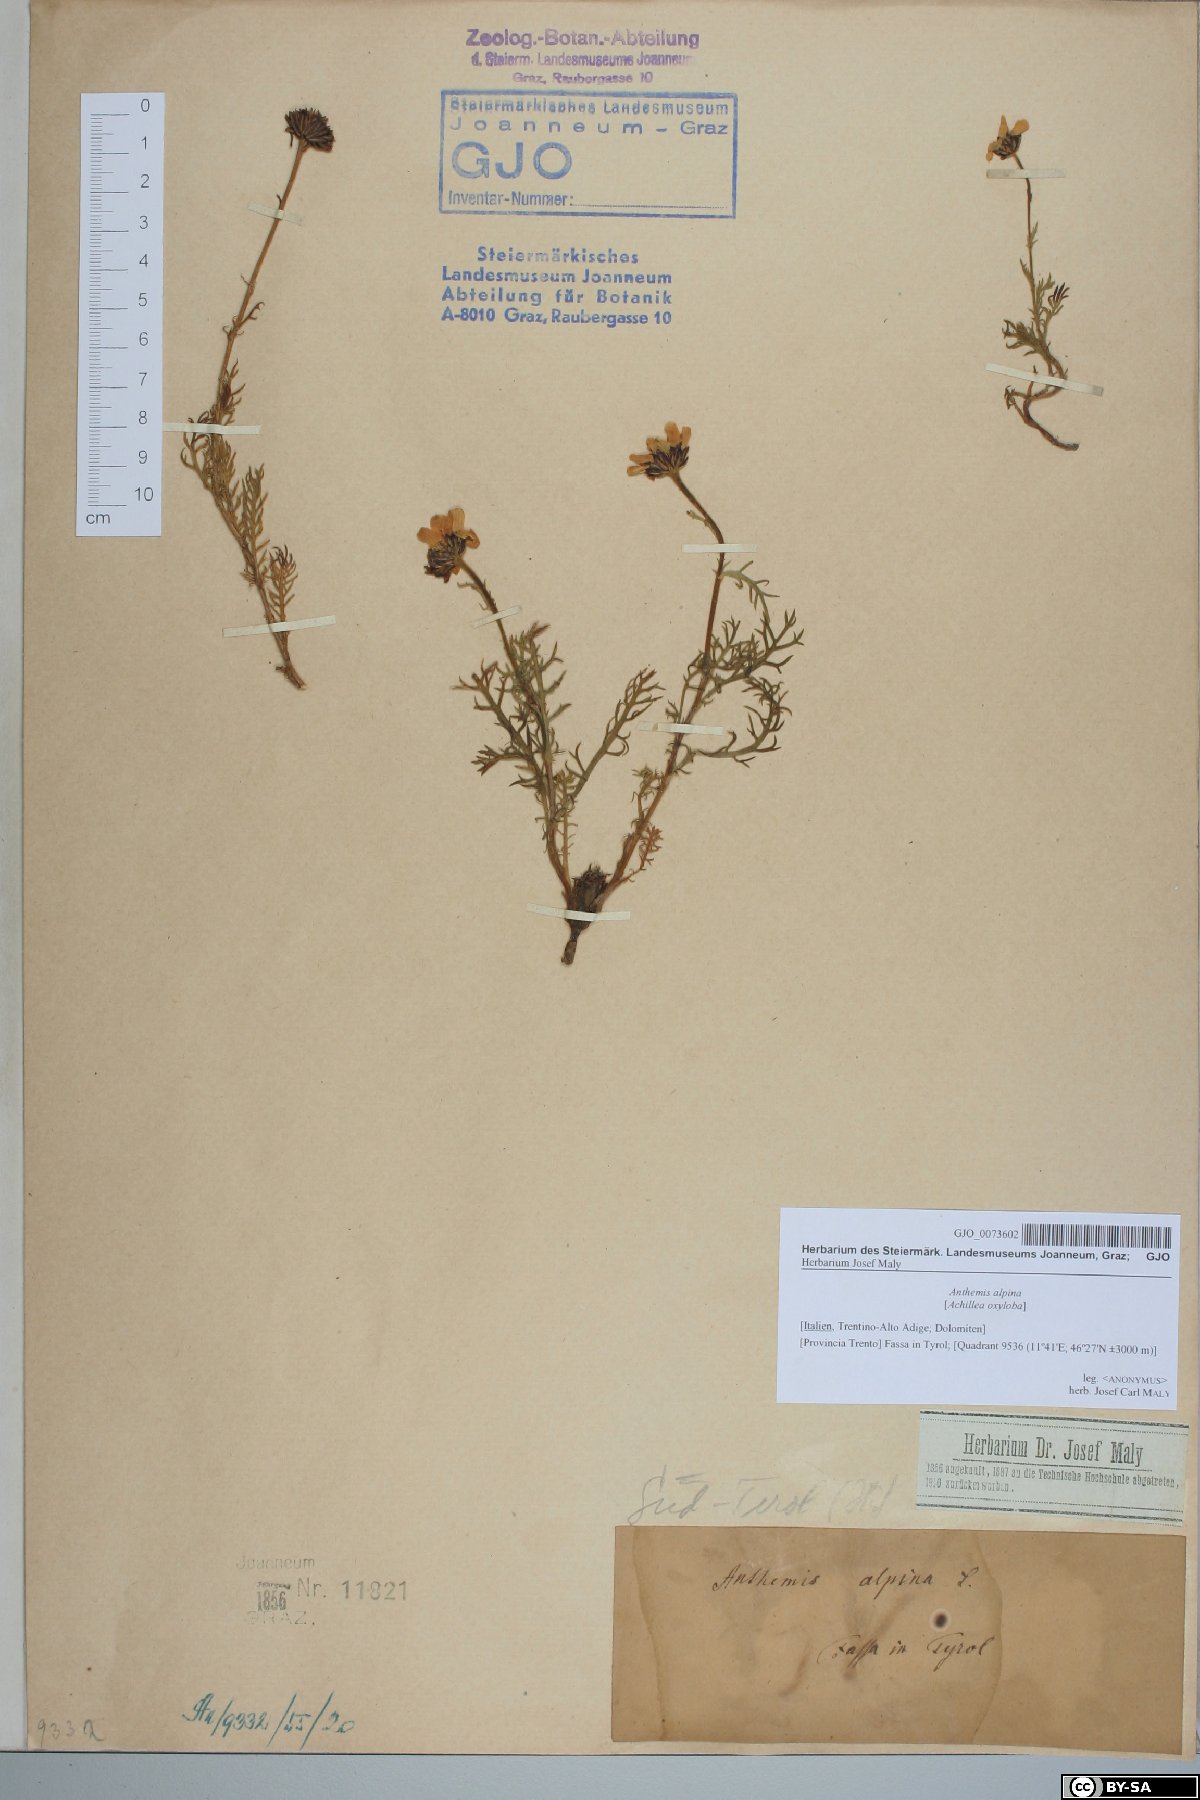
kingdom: Plantae
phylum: Tracheophyta
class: Magnoliopsida
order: Asterales
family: Asteraceae
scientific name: Asteraceae
